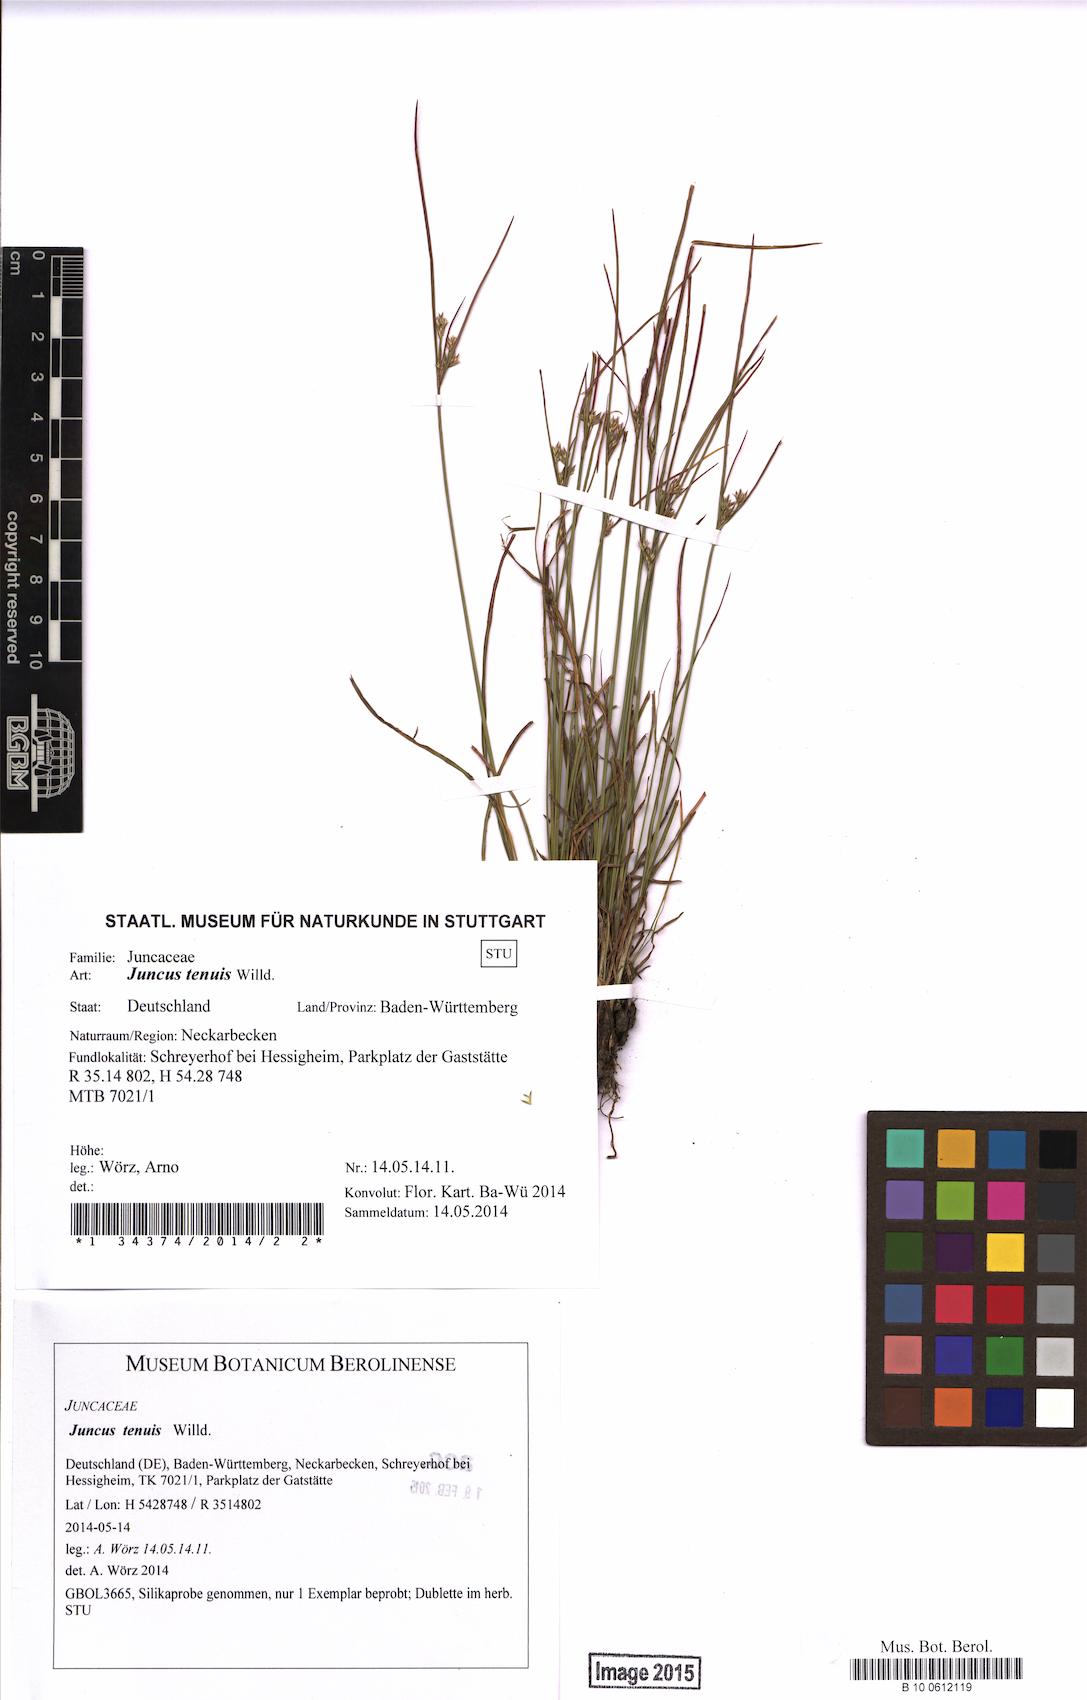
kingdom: Plantae
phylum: Tracheophyta
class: Liliopsida
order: Poales
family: Juncaceae
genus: Juncus
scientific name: Juncus tenuis
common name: Slender rush
